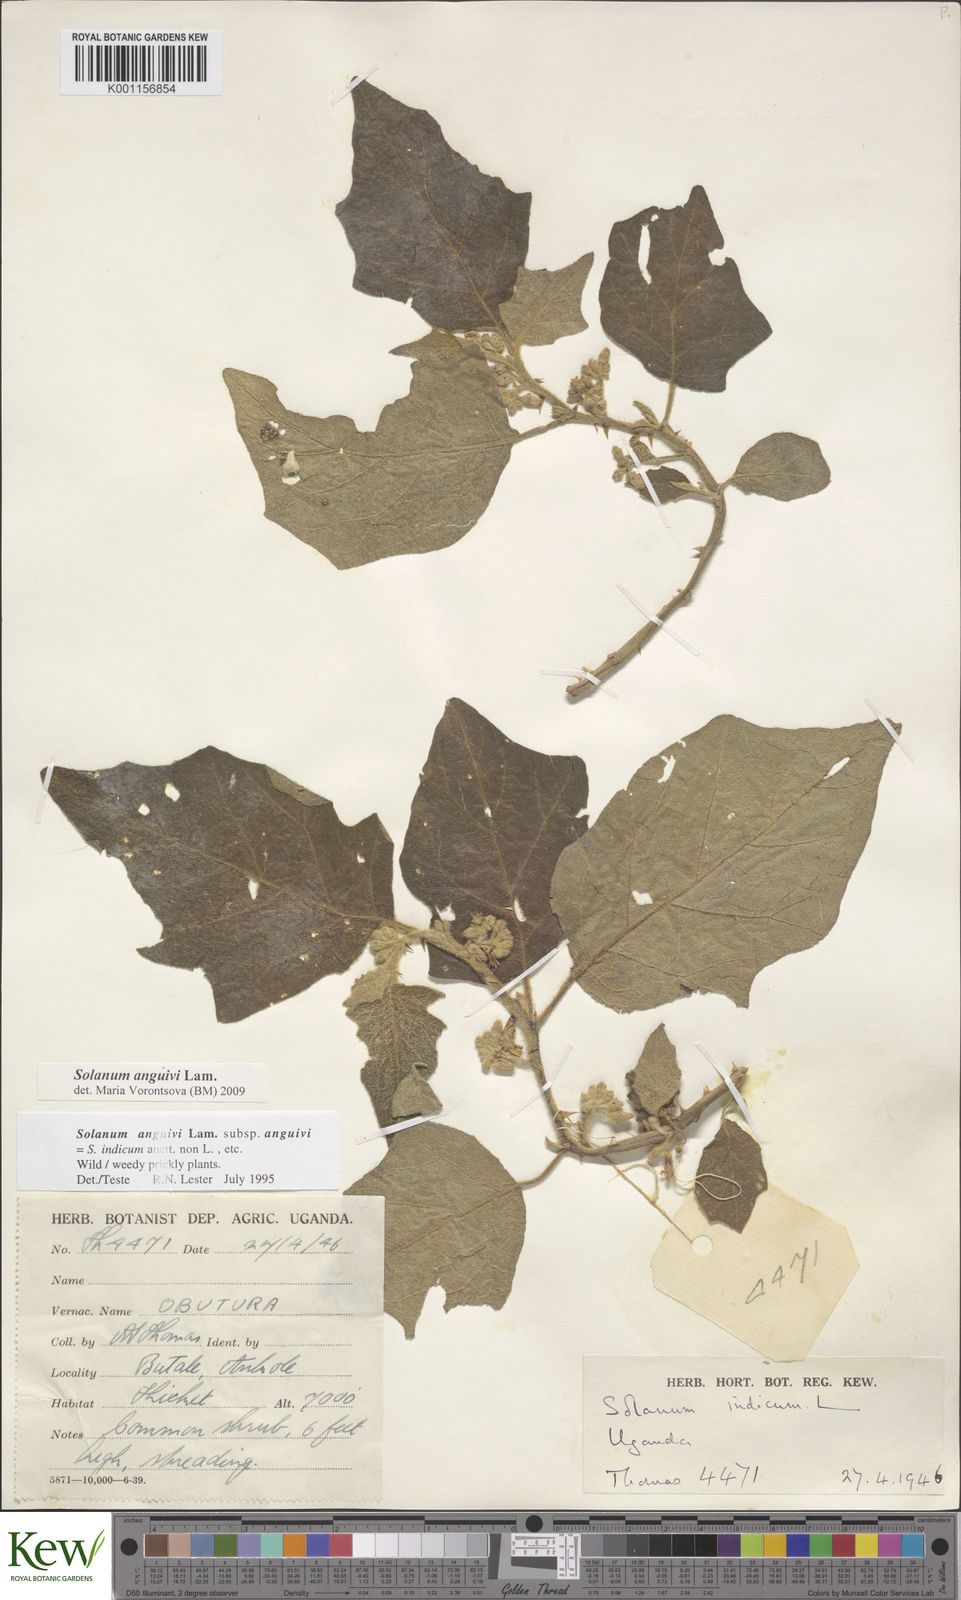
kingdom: Plantae
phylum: Tracheophyta
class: Magnoliopsida
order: Solanales
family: Solanaceae
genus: Solanum
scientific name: Solanum anguivi
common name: Forest bitterberry
